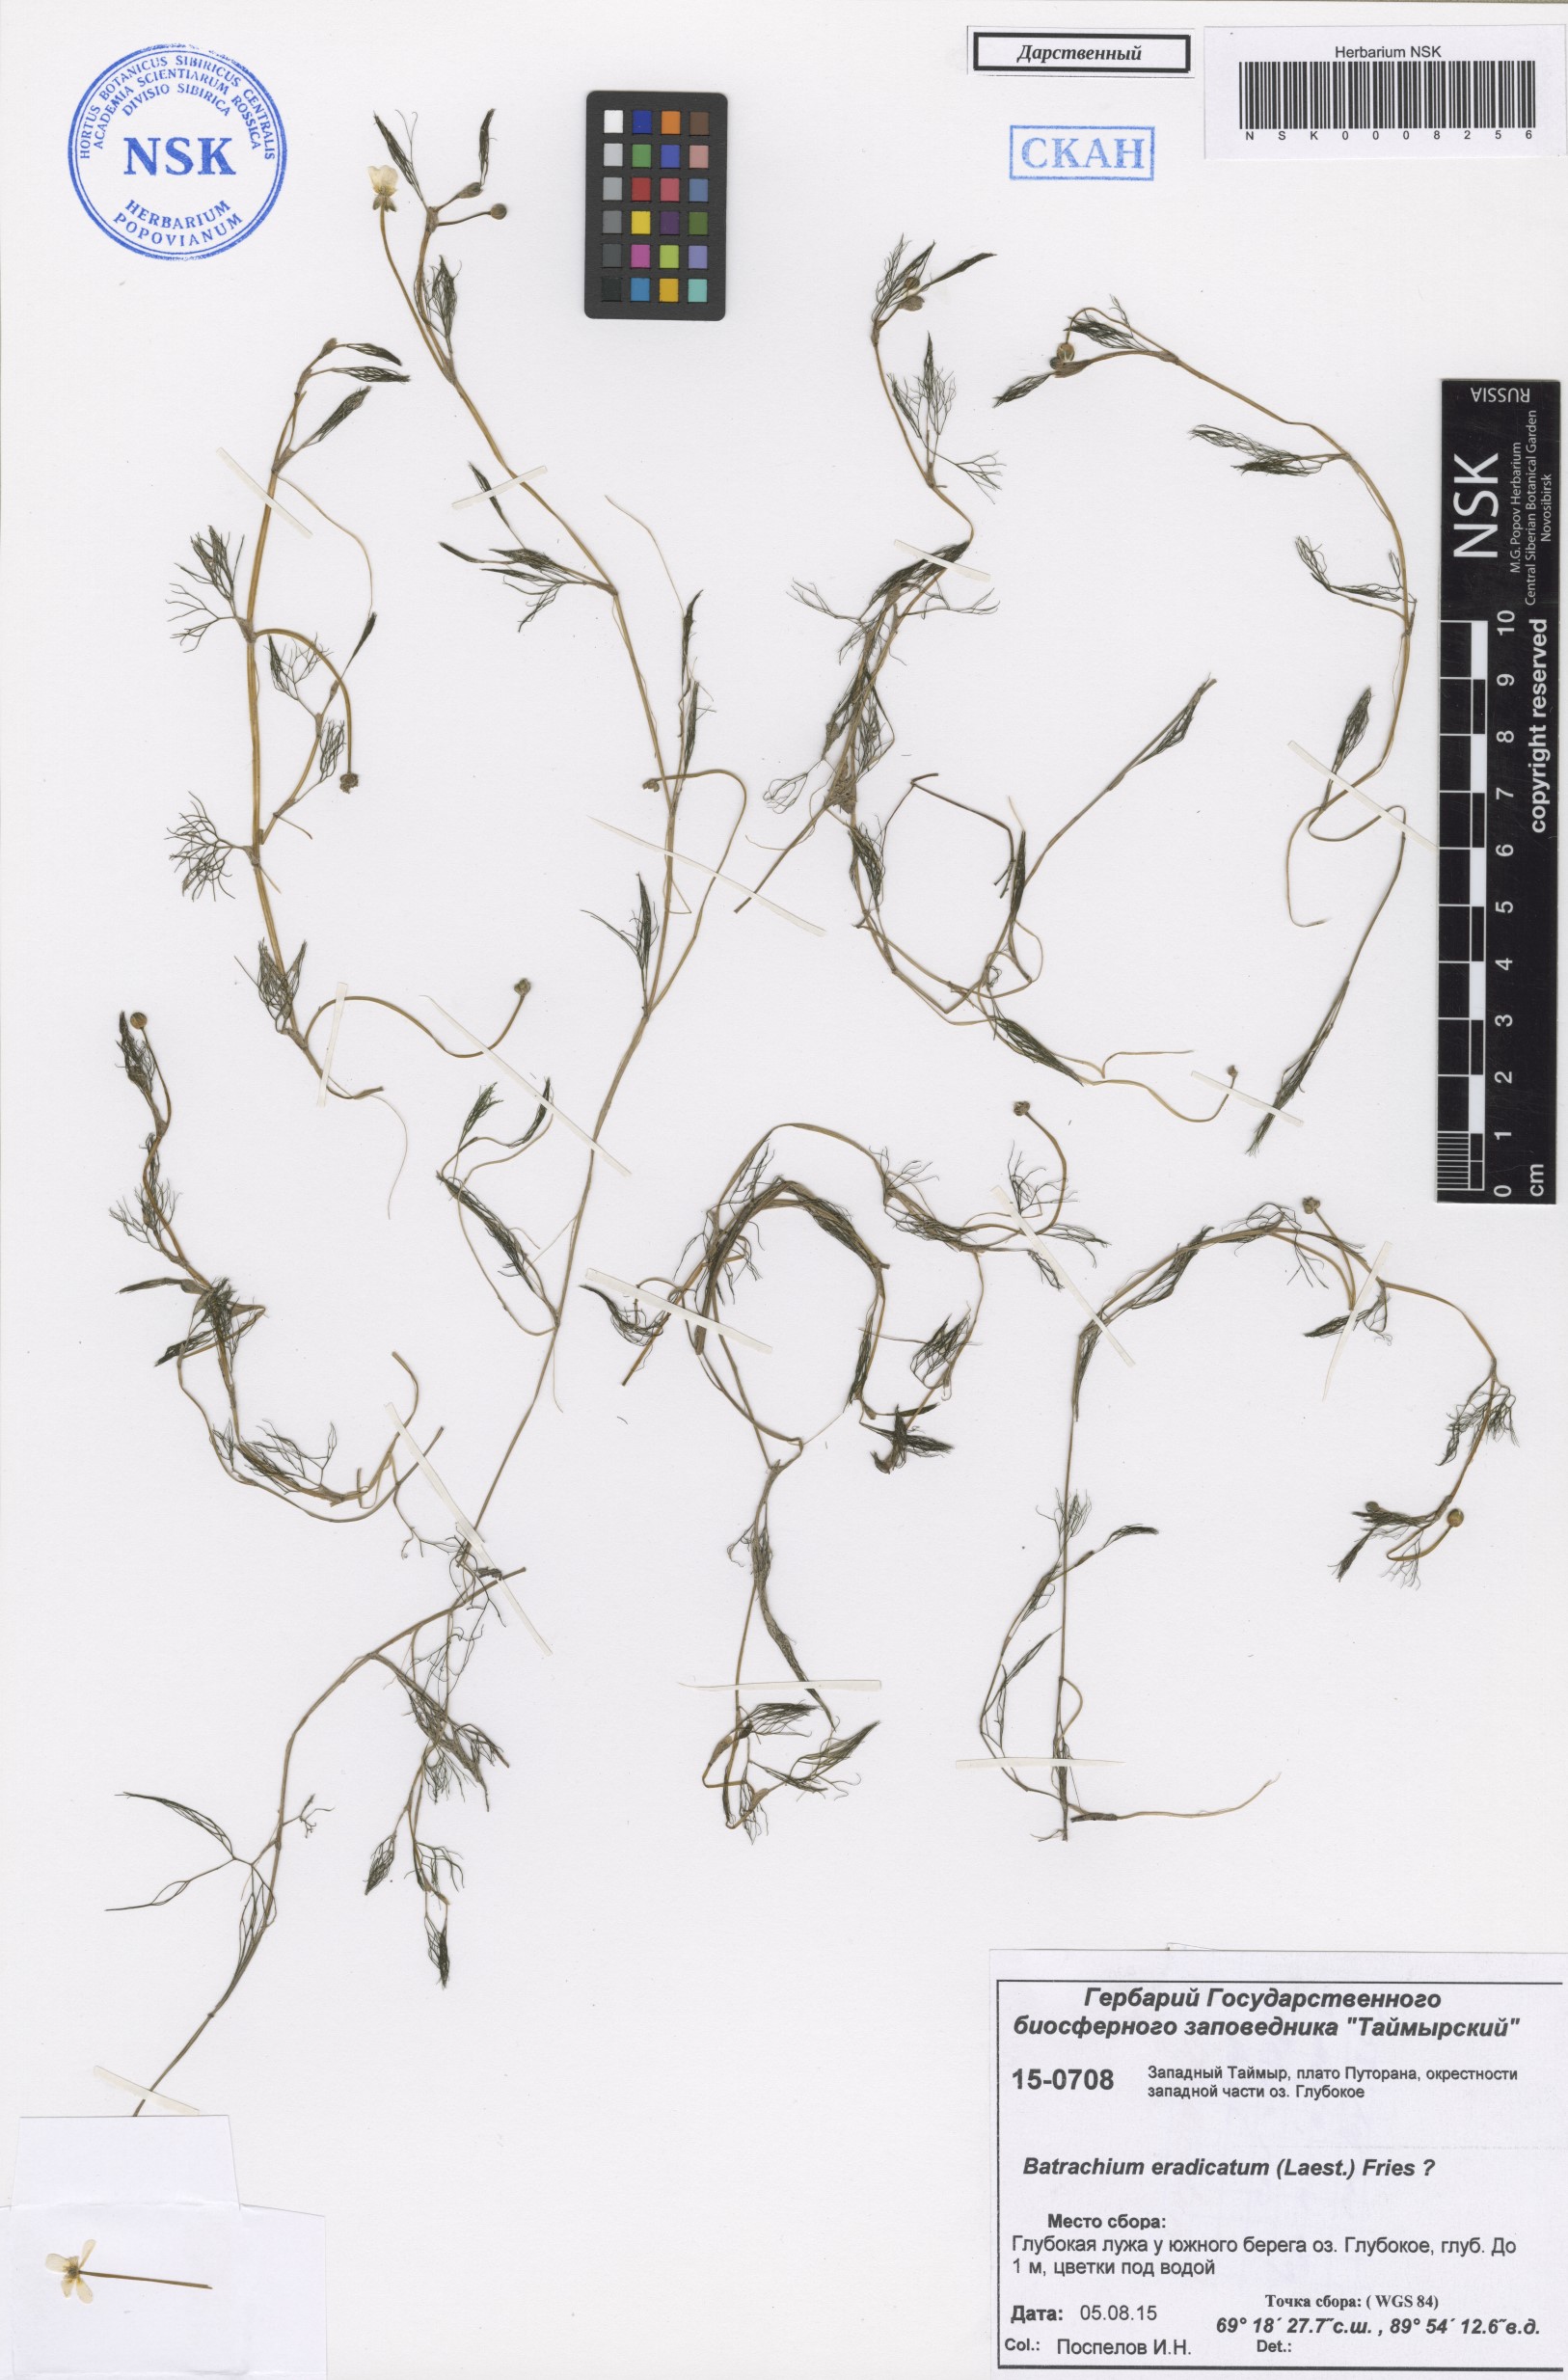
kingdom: Plantae
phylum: Tracheophyta
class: Magnoliopsida
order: Ranunculales
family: Ranunculaceae
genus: Ranunculus
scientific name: Ranunculus confervoides
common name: Delicate buttercup
